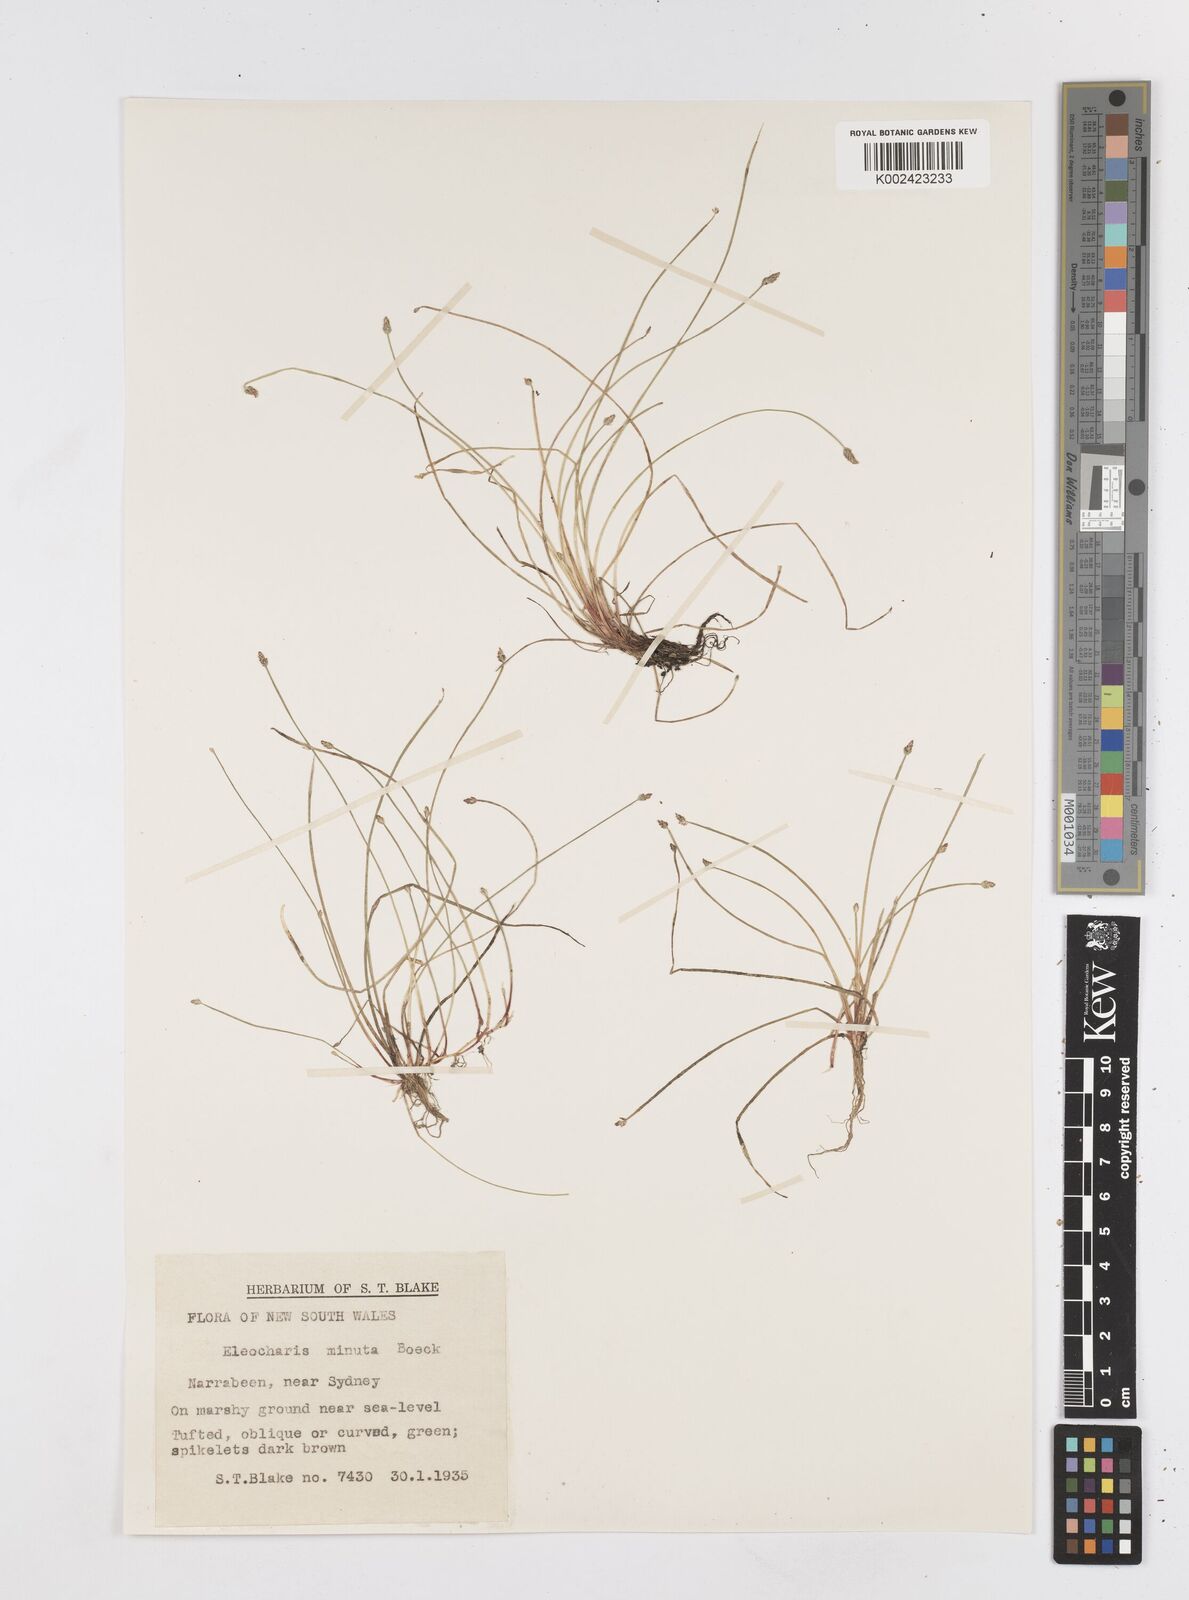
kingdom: Plantae
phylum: Tracheophyta
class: Liliopsida
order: Poales
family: Cyperaceae
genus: Eleocharis
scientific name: Eleocharis minuta
